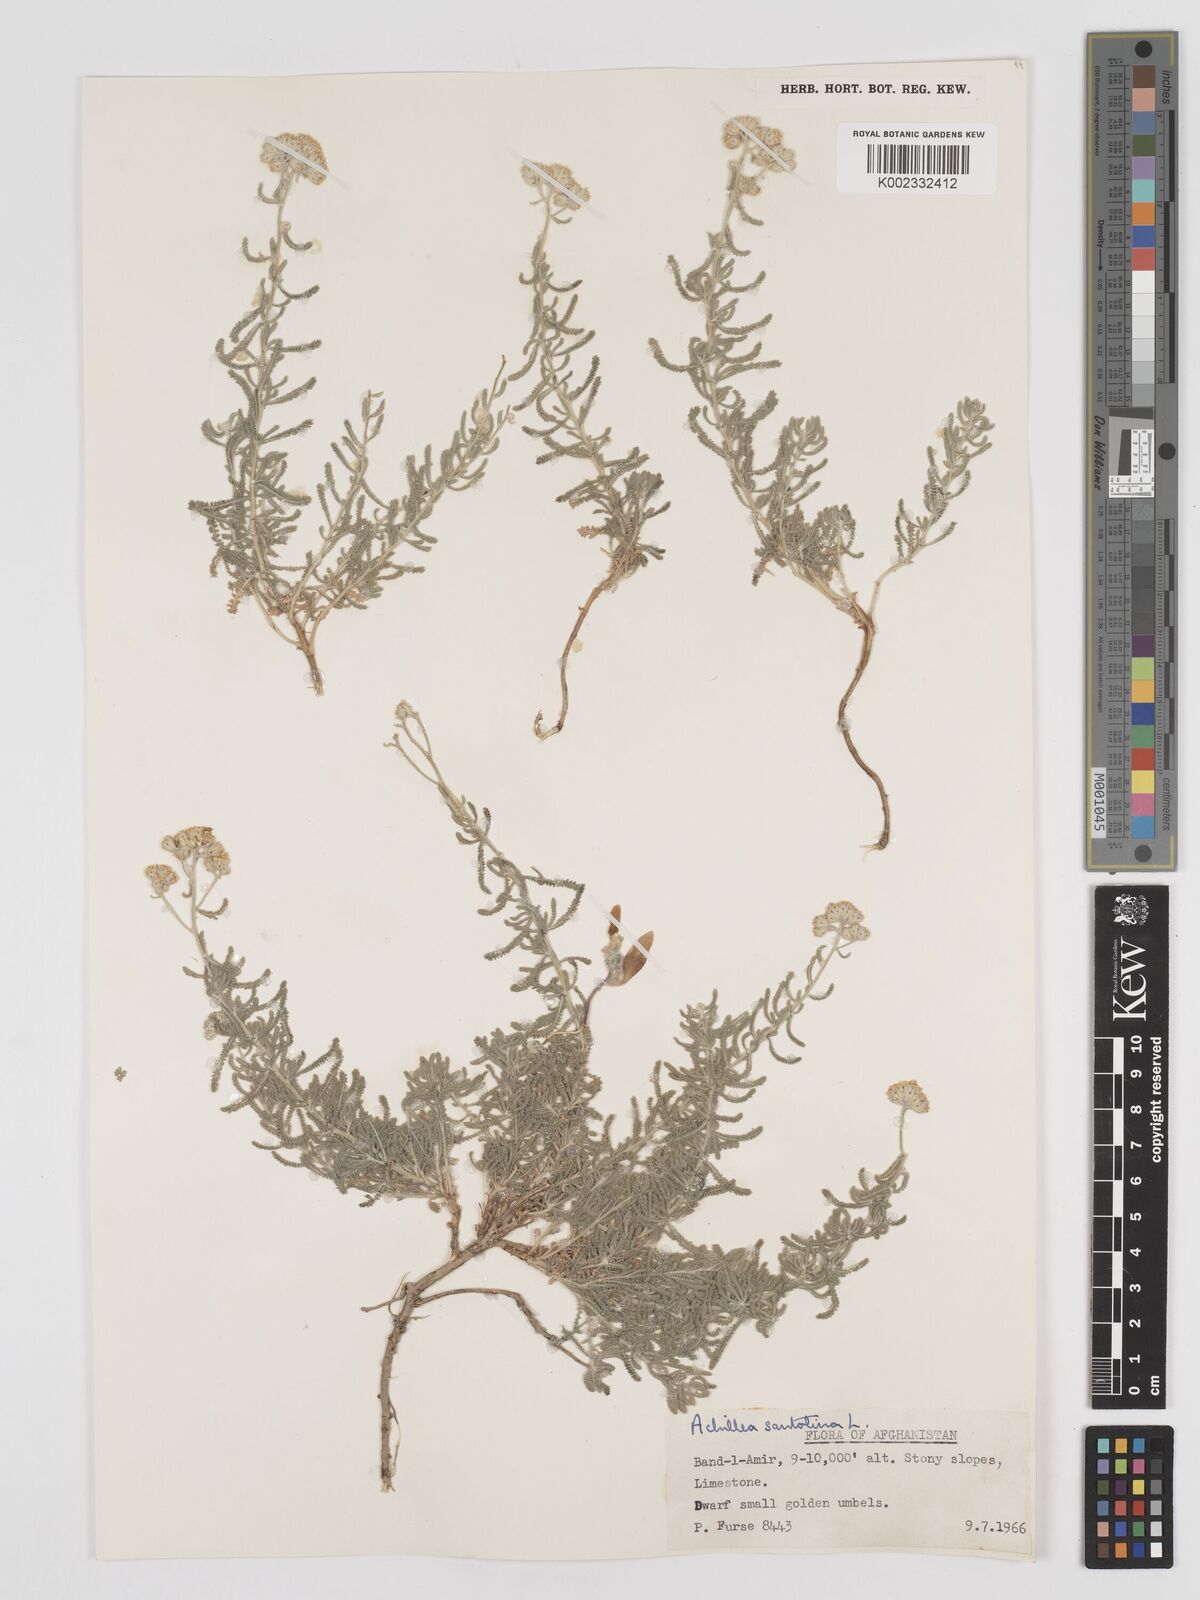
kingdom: Plantae
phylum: Tracheophyta
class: Magnoliopsida
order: Asterales
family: Asteraceae
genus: Achillea
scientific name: Achillea tenuifolia
